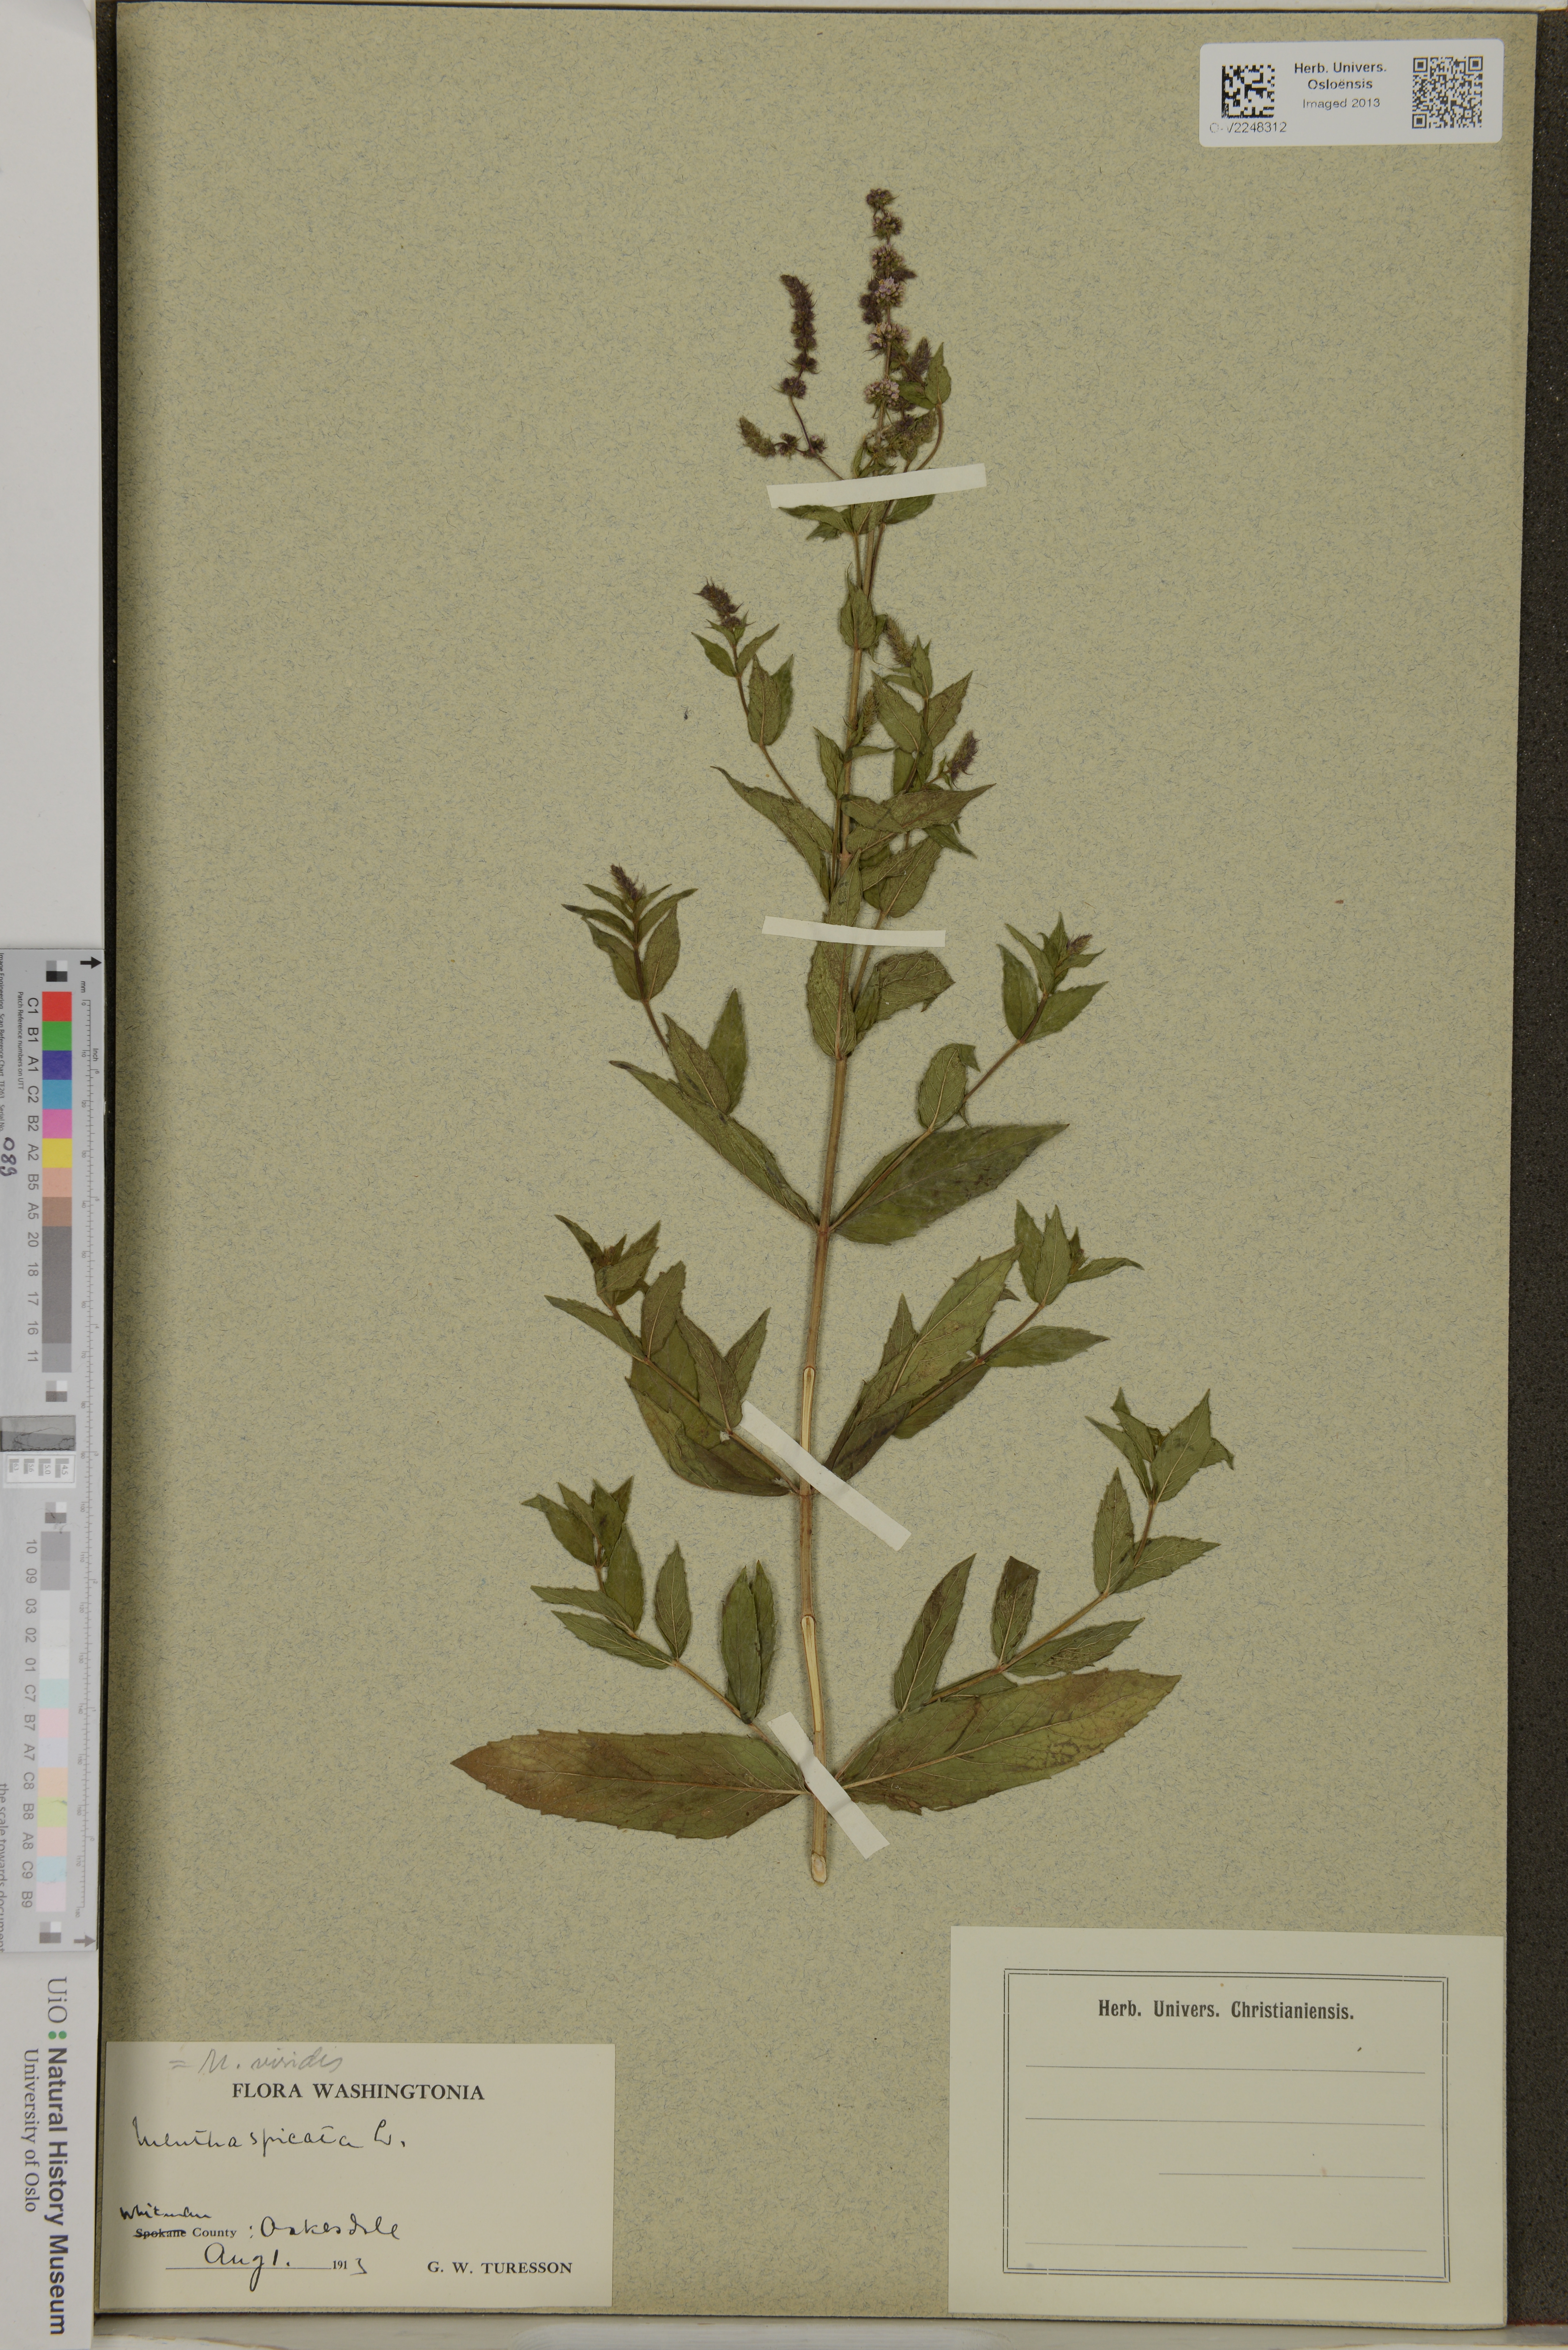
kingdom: Plantae
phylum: Tracheophyta
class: Magnoliopsida
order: Lamiales
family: Lamiaceae
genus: Mentha
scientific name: Mentha spicata
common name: Spearmint
